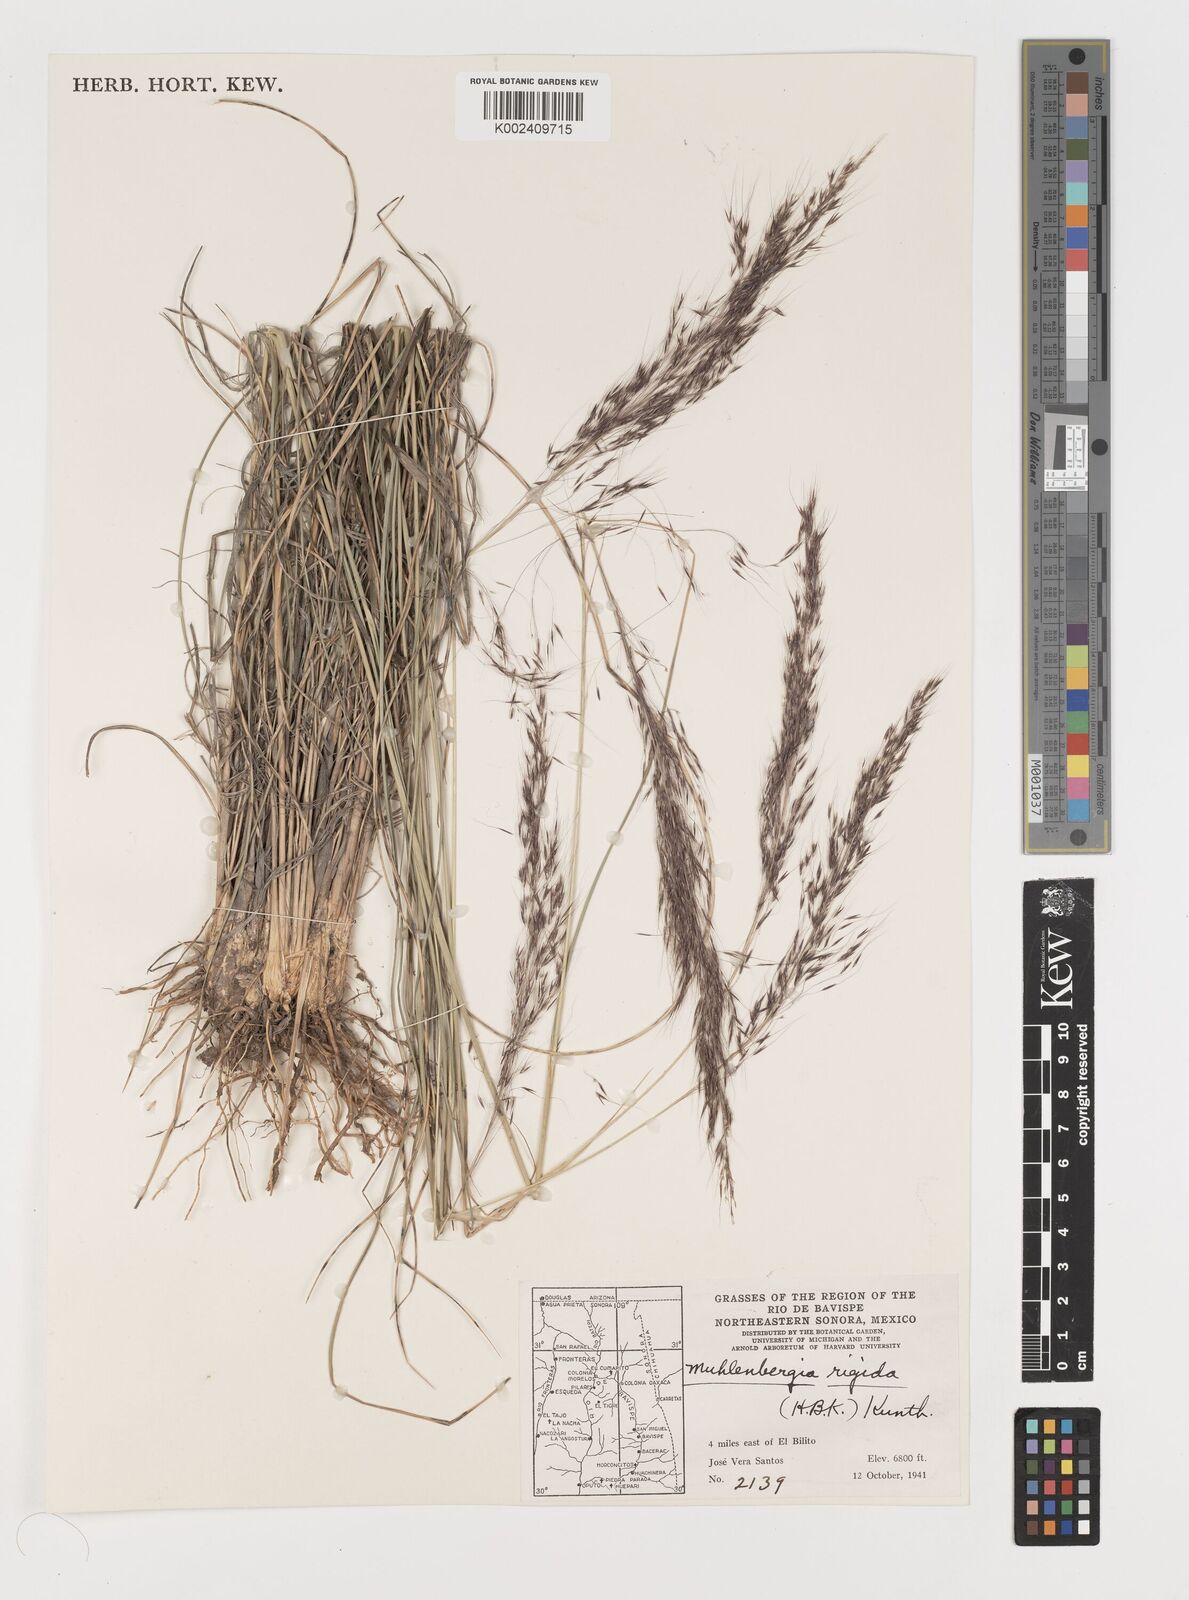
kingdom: Plantae
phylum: Tracheophyta
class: Liliopsida
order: Poales
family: Poaceae
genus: Muhlenbergia
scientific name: Muhlenbergia rigida
